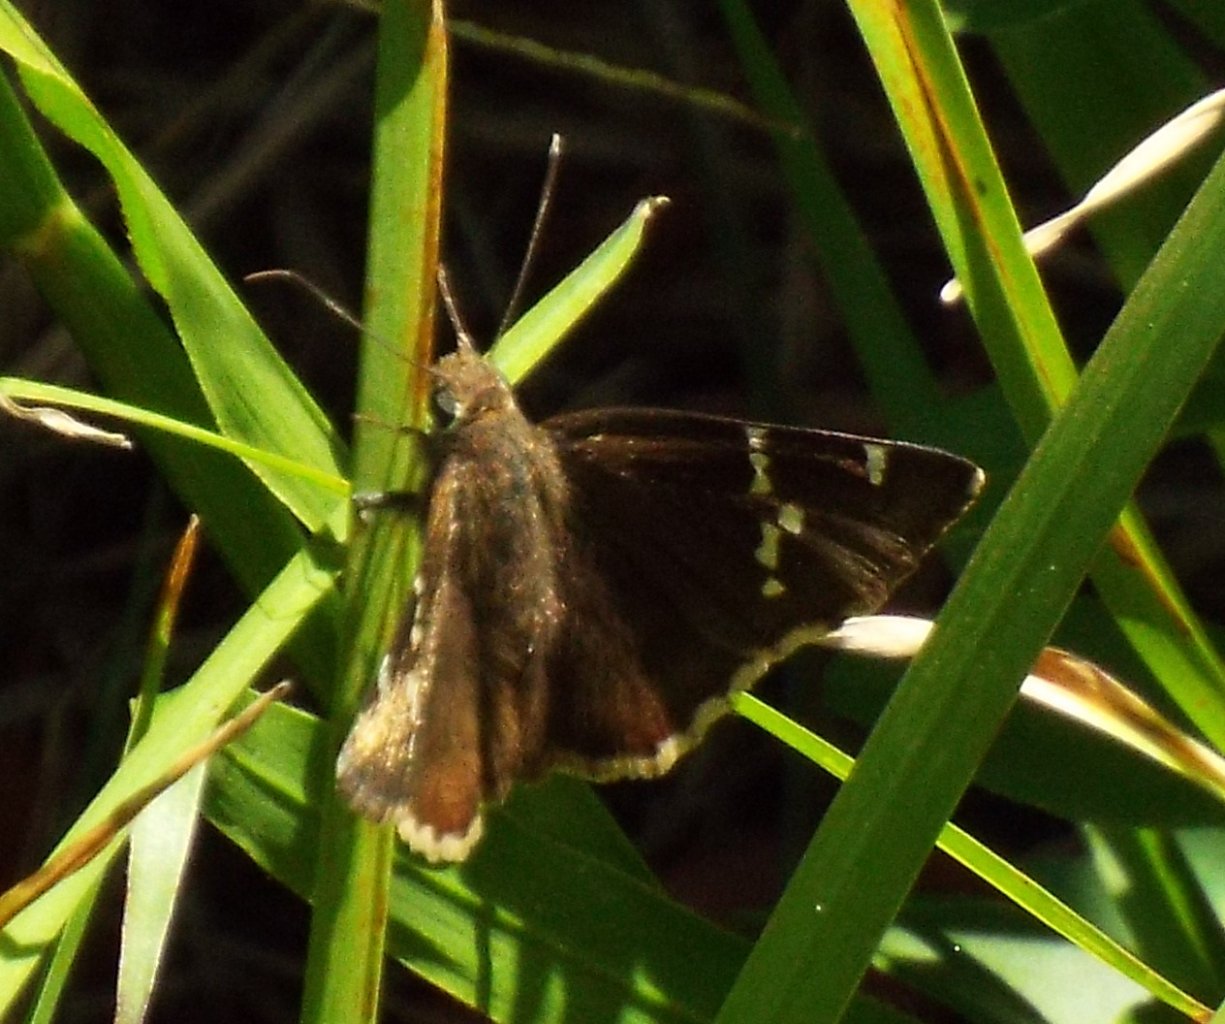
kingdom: Animalia
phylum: Arthropoda
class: Insecta
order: Lepidoptera
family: Hesperiidae
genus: Autochton
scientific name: Autochton
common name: Southern Cloudywing
